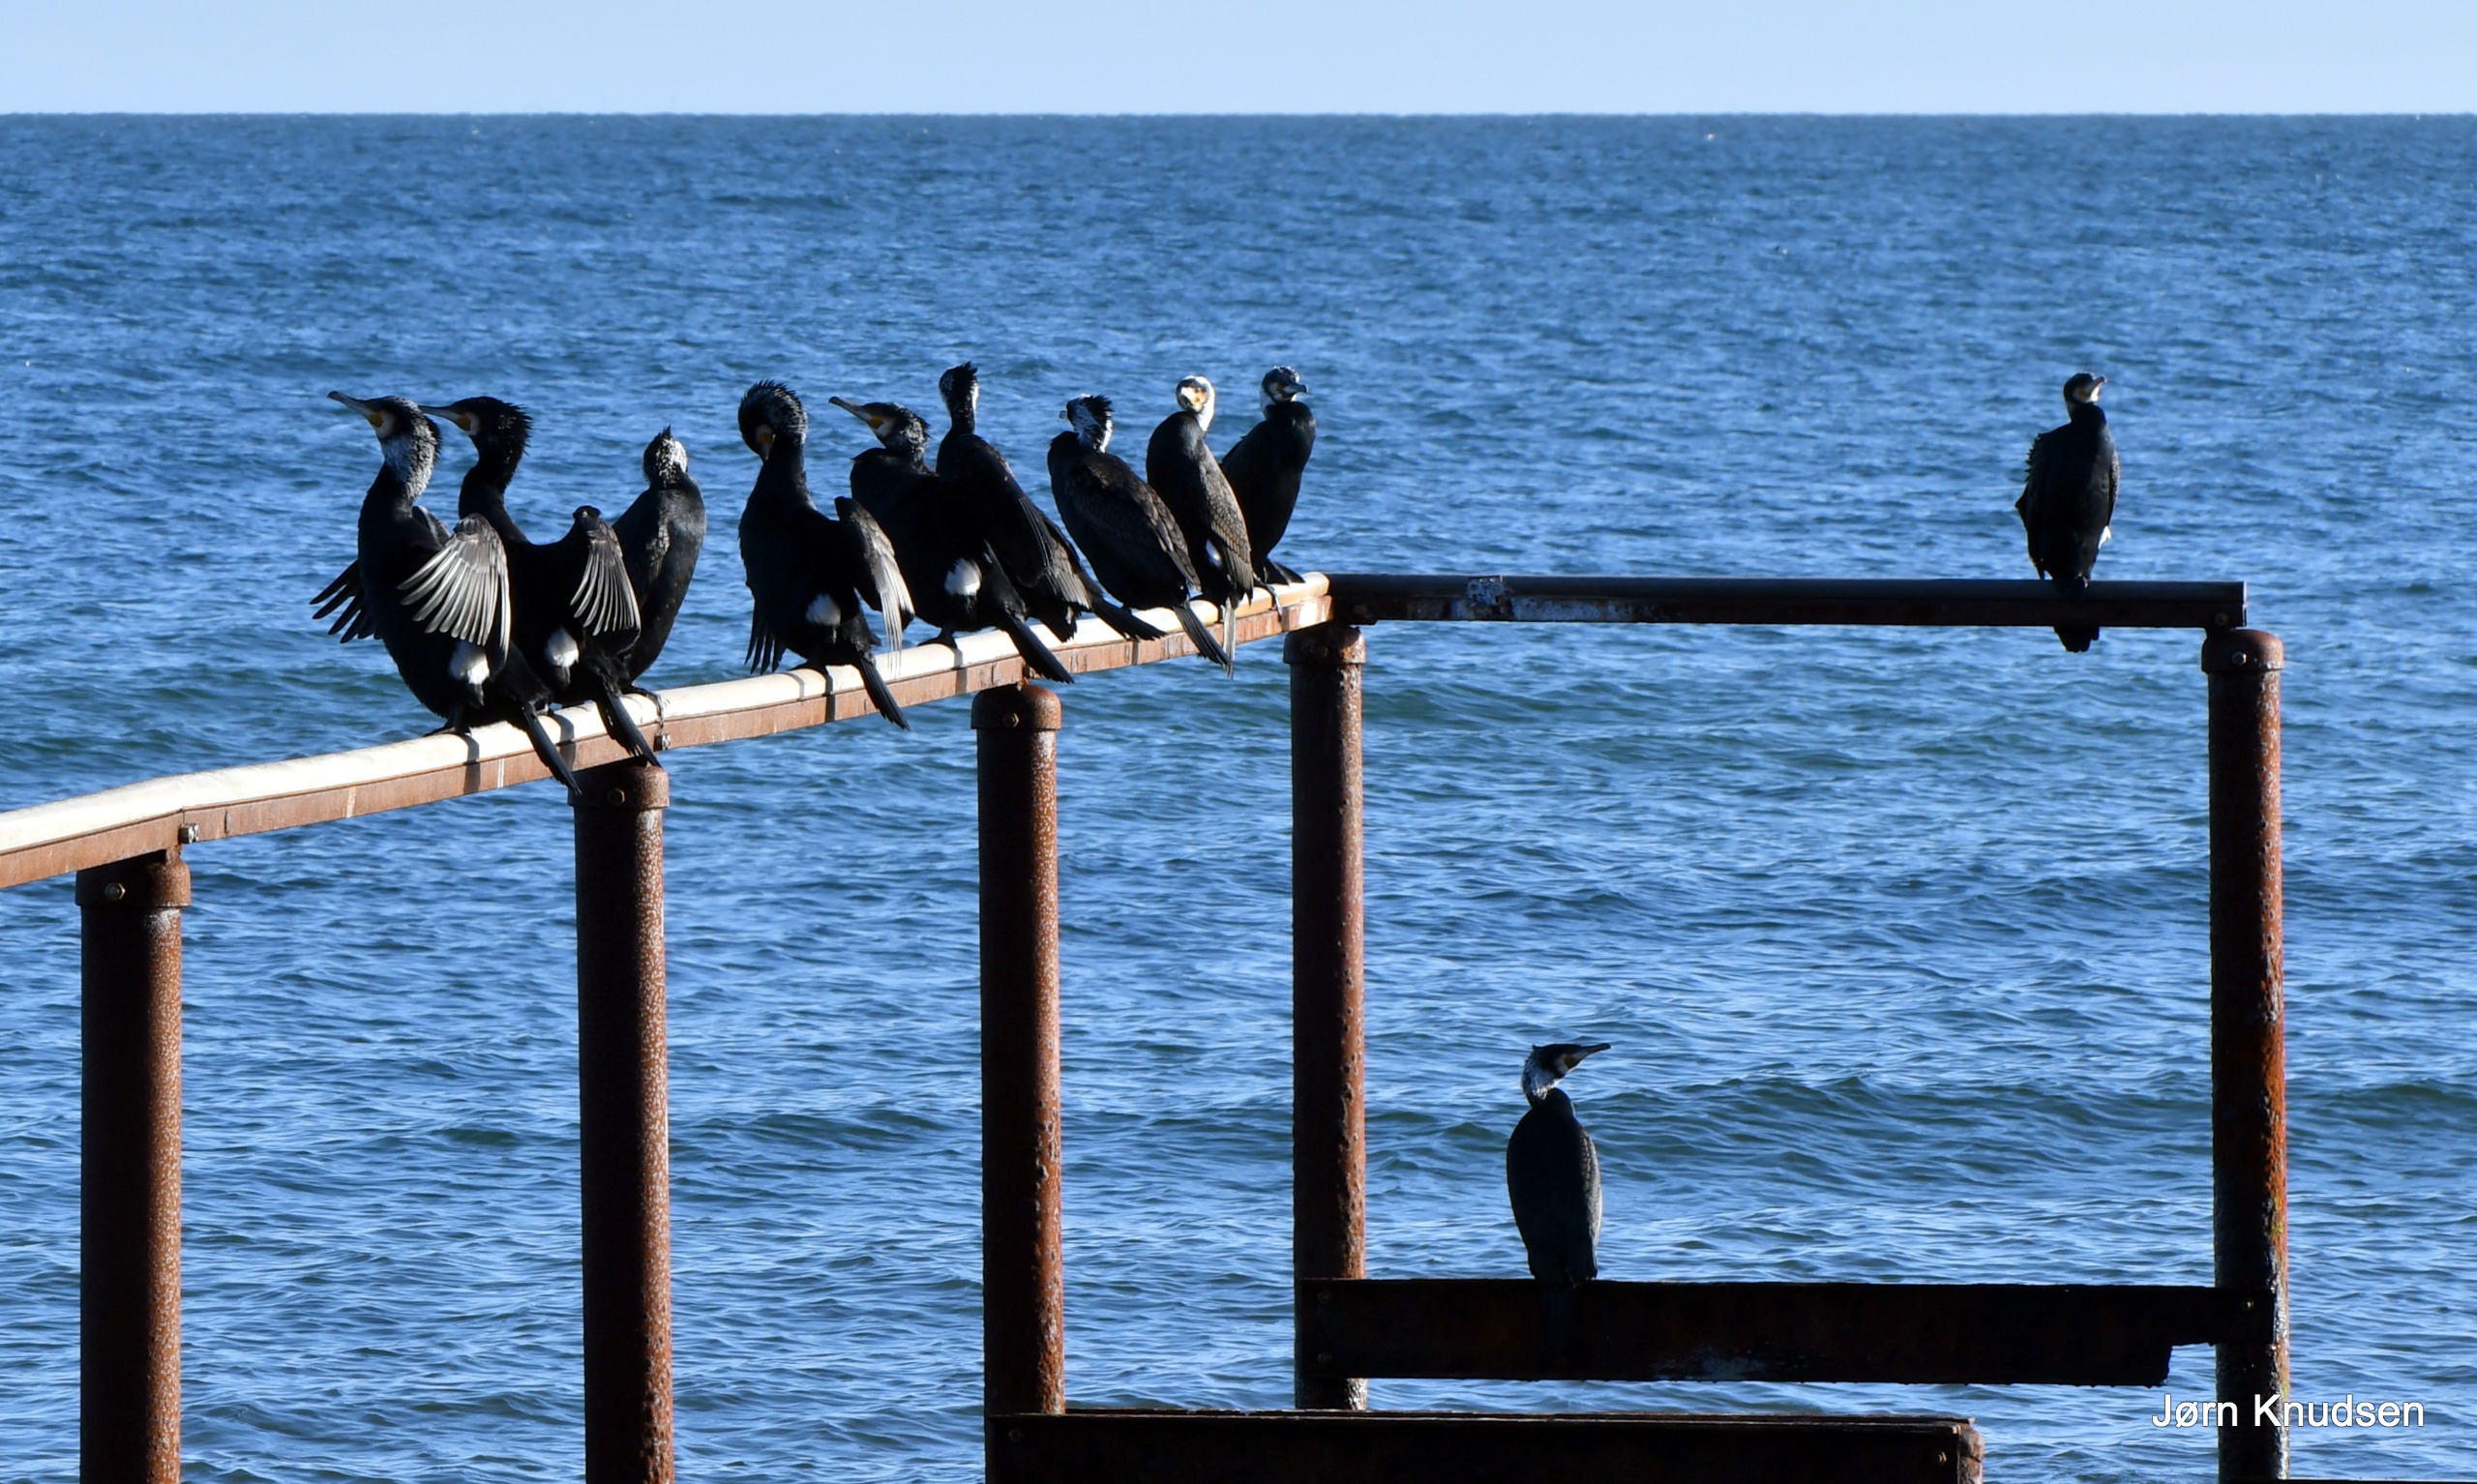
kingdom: Animalia
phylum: Chordata
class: Aves
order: Suliformes
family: Phalacrocoracidae
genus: Phalacrocorax
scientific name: Phalacrocorax carbo
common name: Mellemskarv
